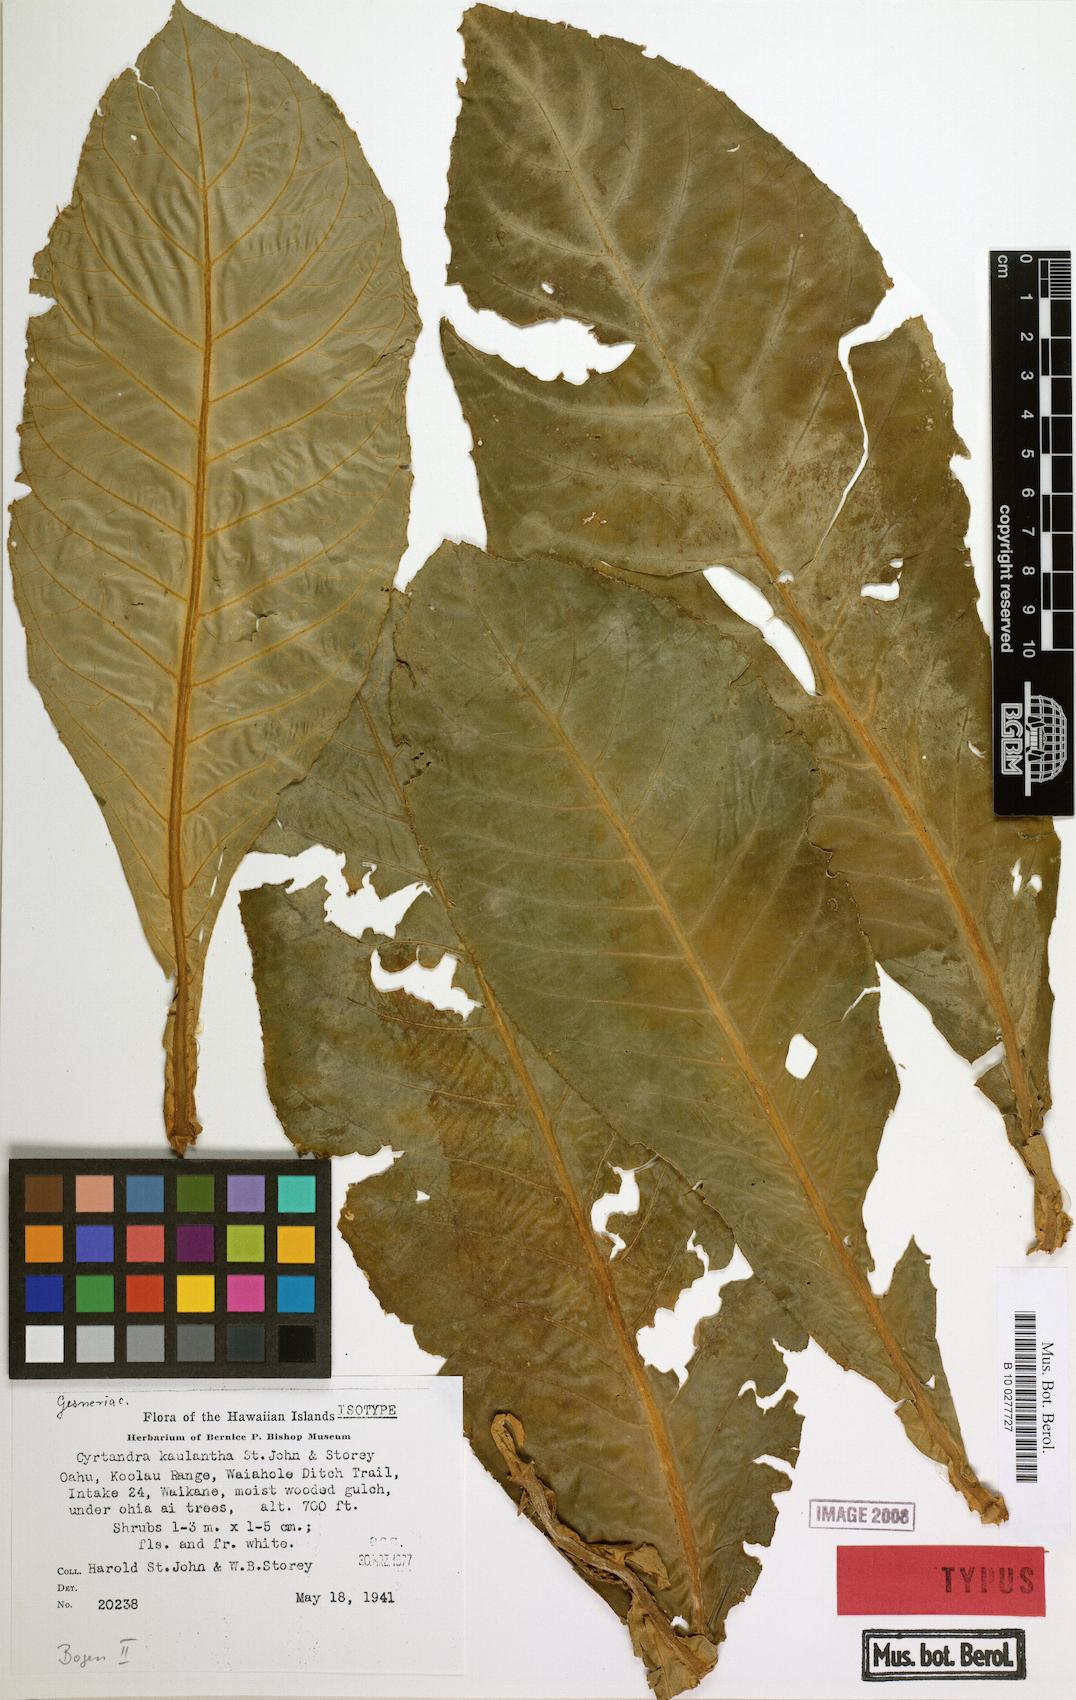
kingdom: Plantae
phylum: Tracheophyta
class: Magnoliopsida
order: Lamiales
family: Gesneriaceae
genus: Cyrtandra
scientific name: Cyrtandra kaulantha
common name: Waikane valley cyrtandra
